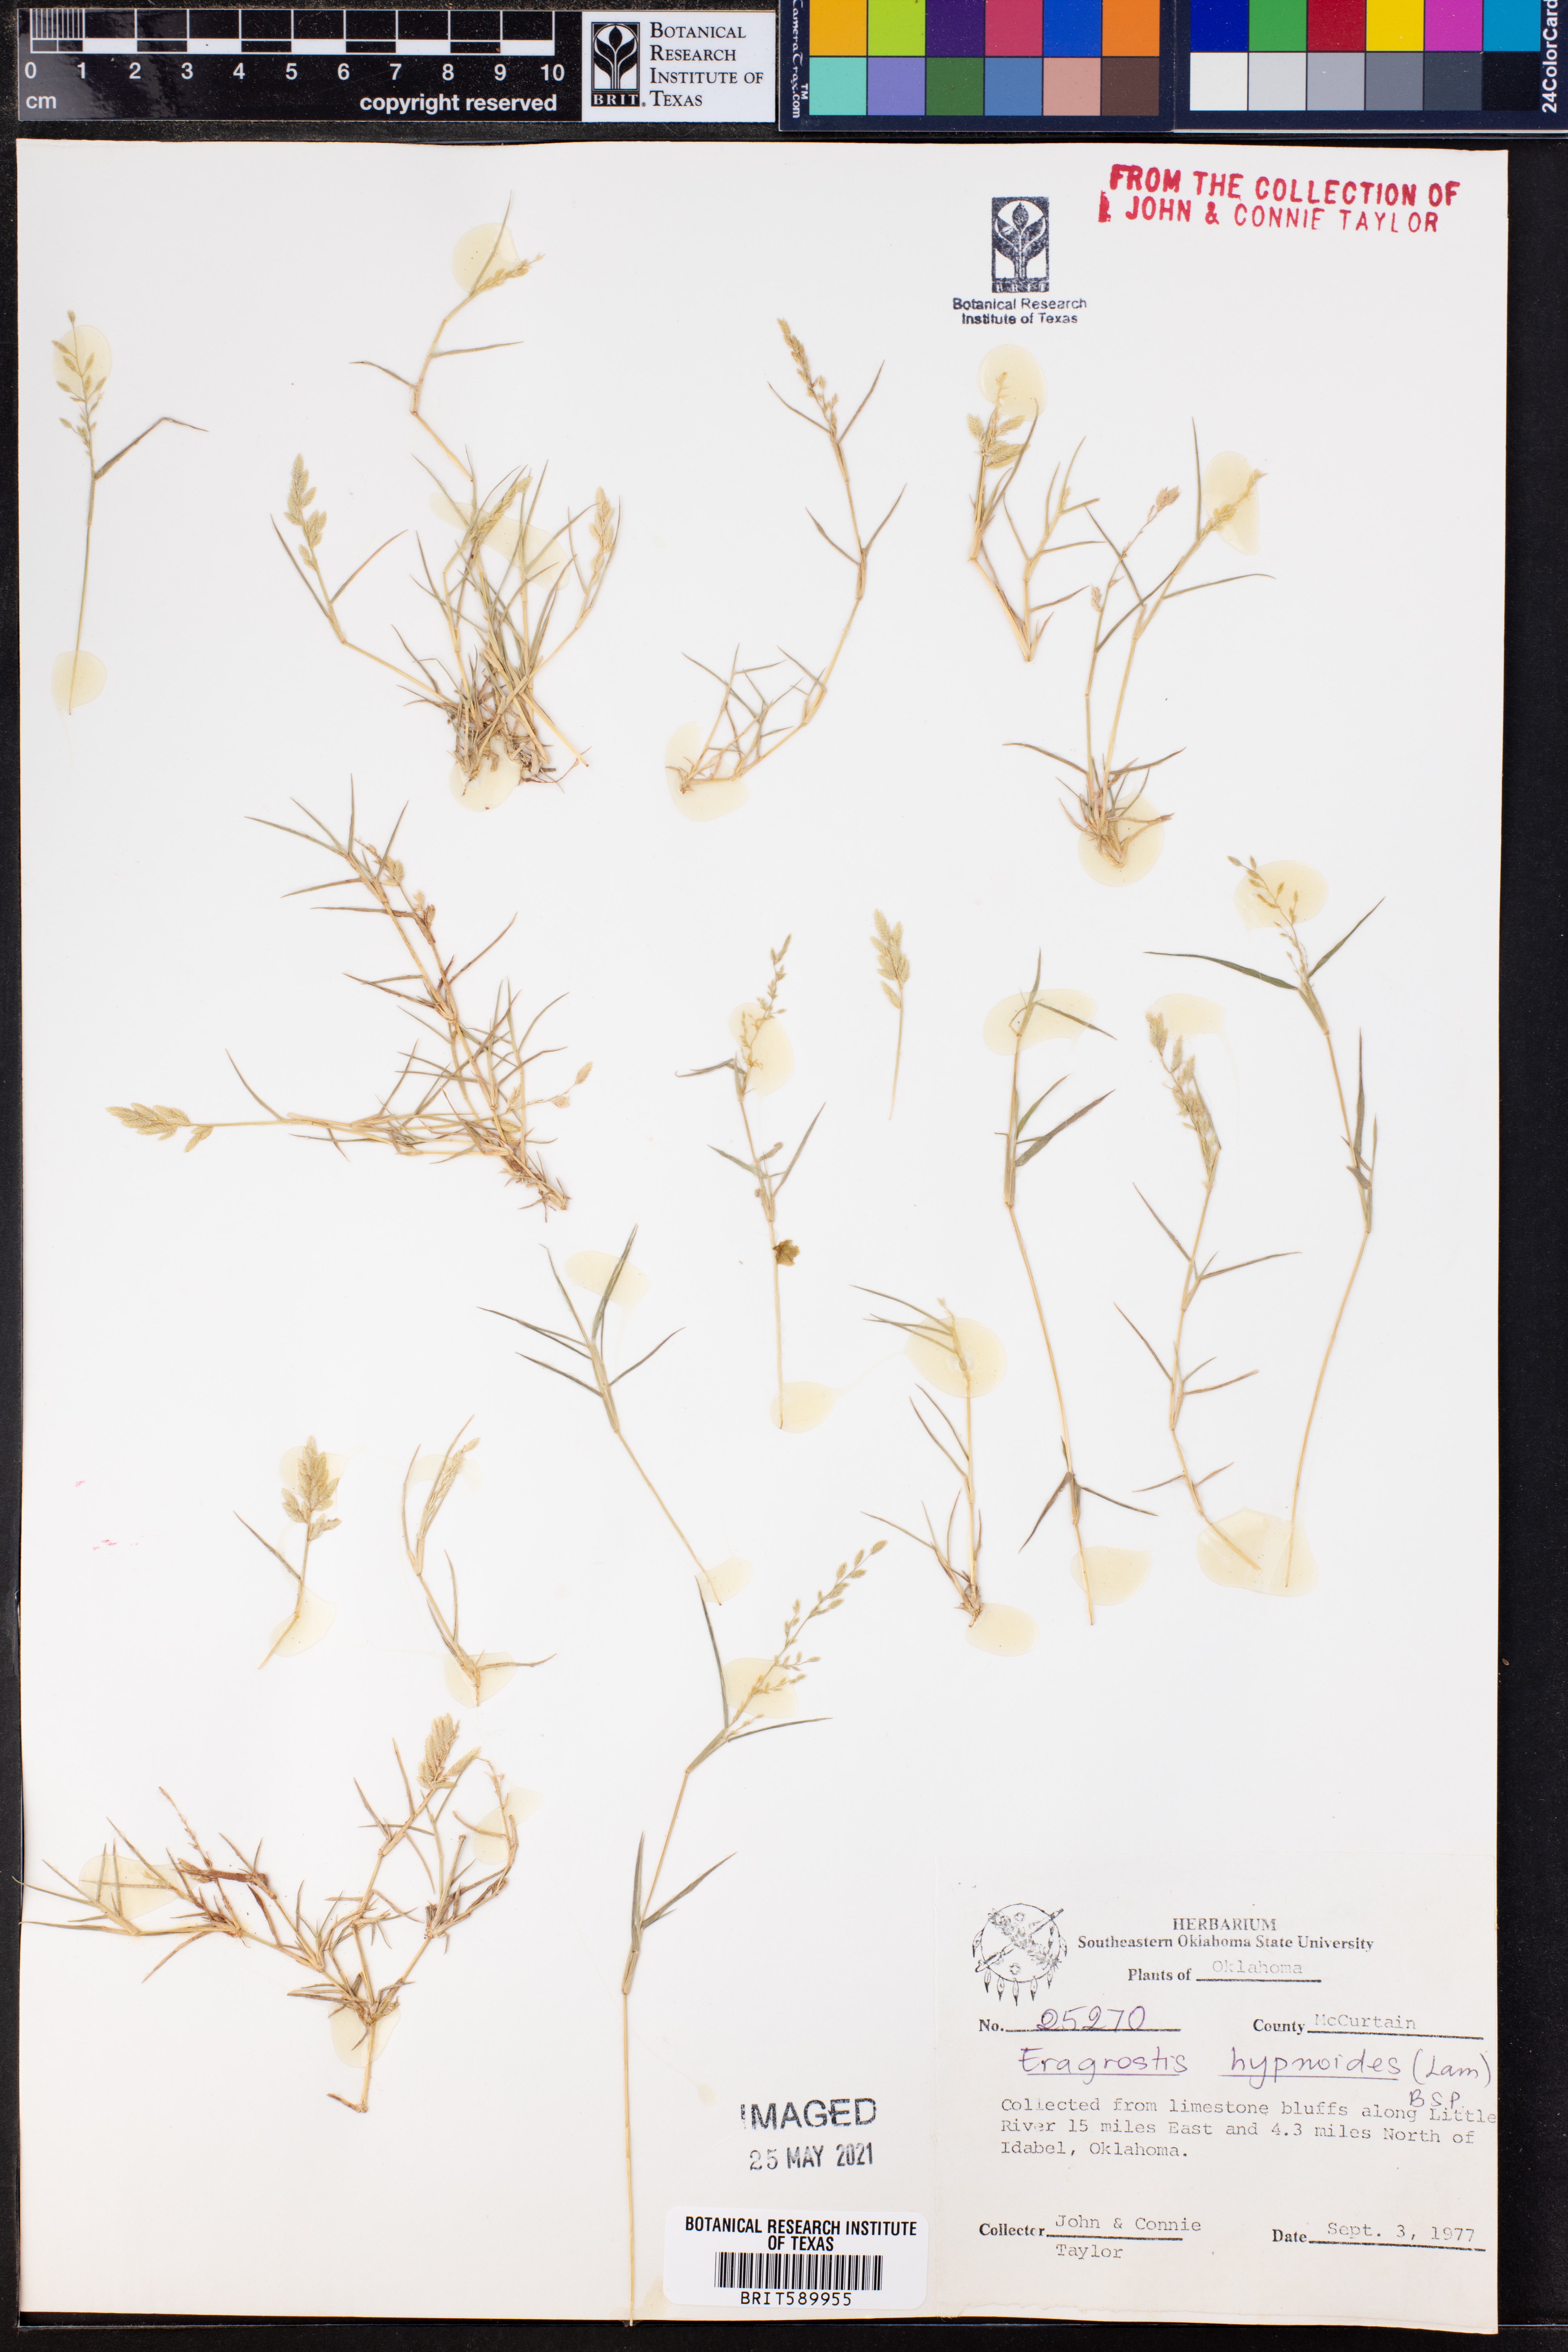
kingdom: Plantae
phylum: Tracheophyta
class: Liliopsida
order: Poales
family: Poaceae
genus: Eragrostis
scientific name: Eragrostis hypnoides
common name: Creeping love grass
